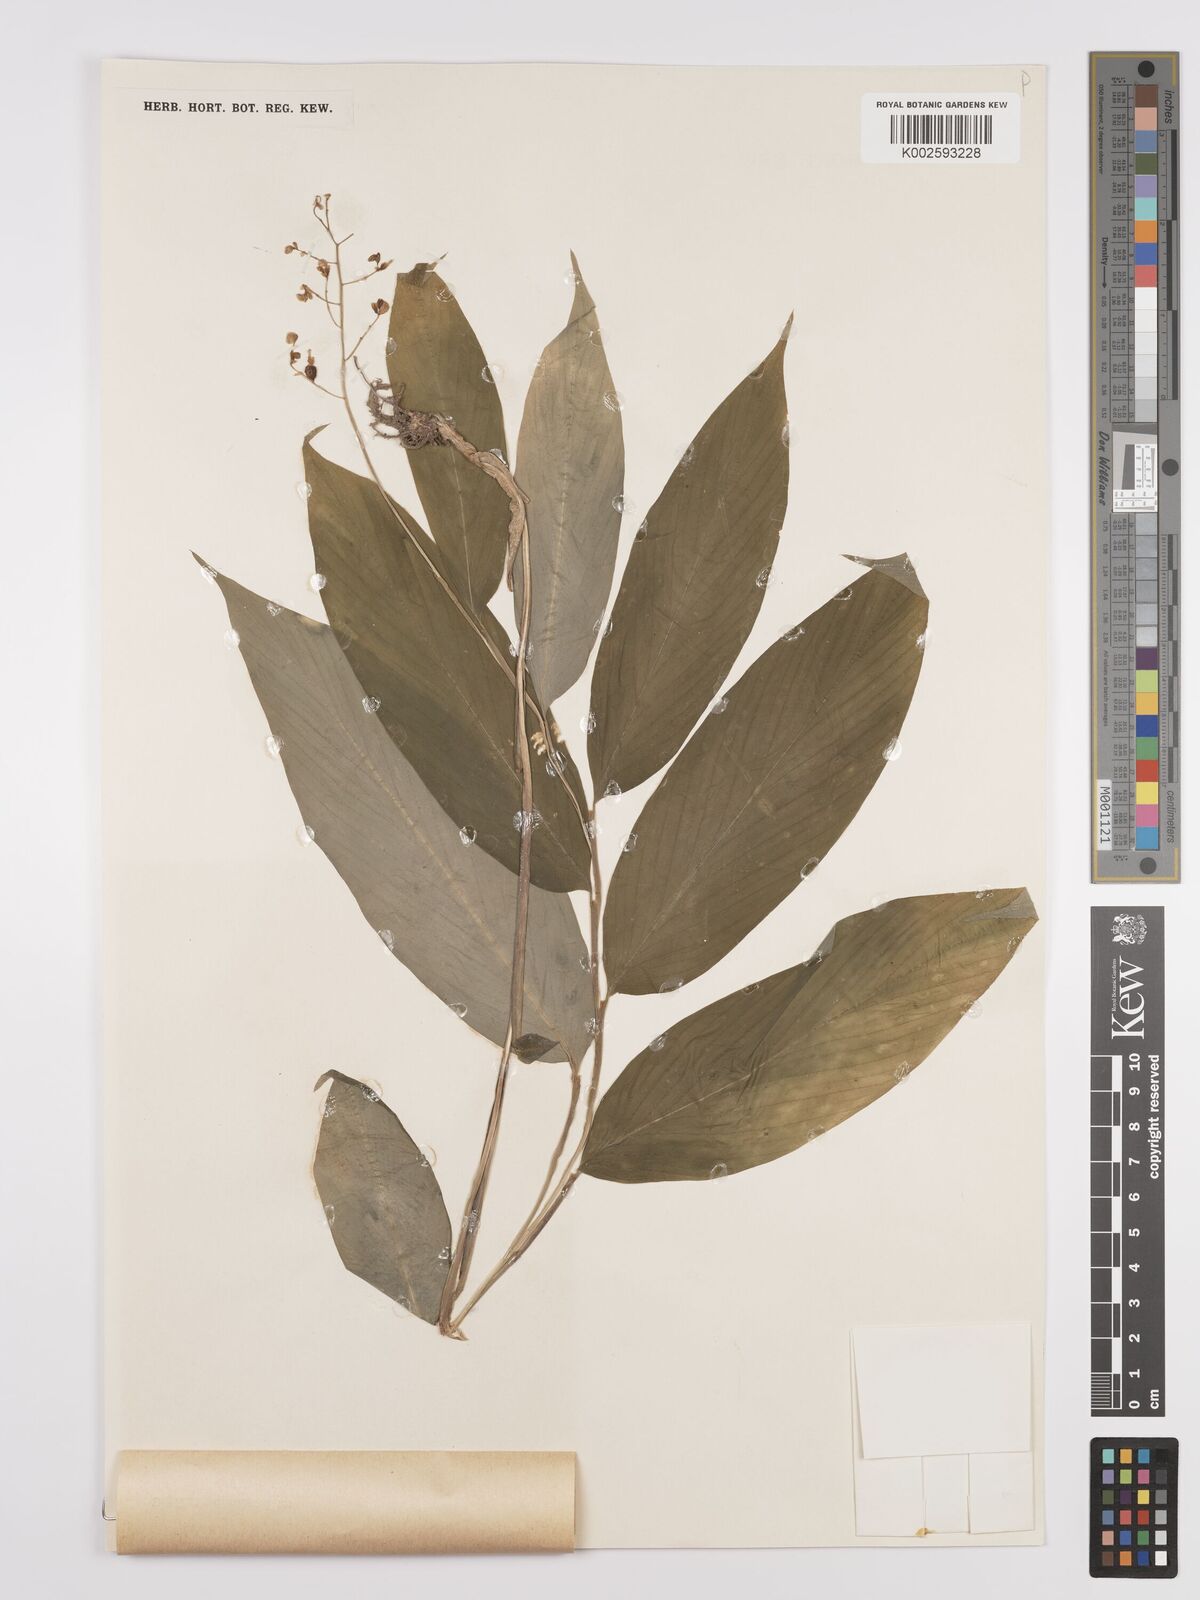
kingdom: Plantae
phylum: Tracheophyta
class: Liliopsida
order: Zingiberales
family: Zingiberaceae
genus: Globba
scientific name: Globba
